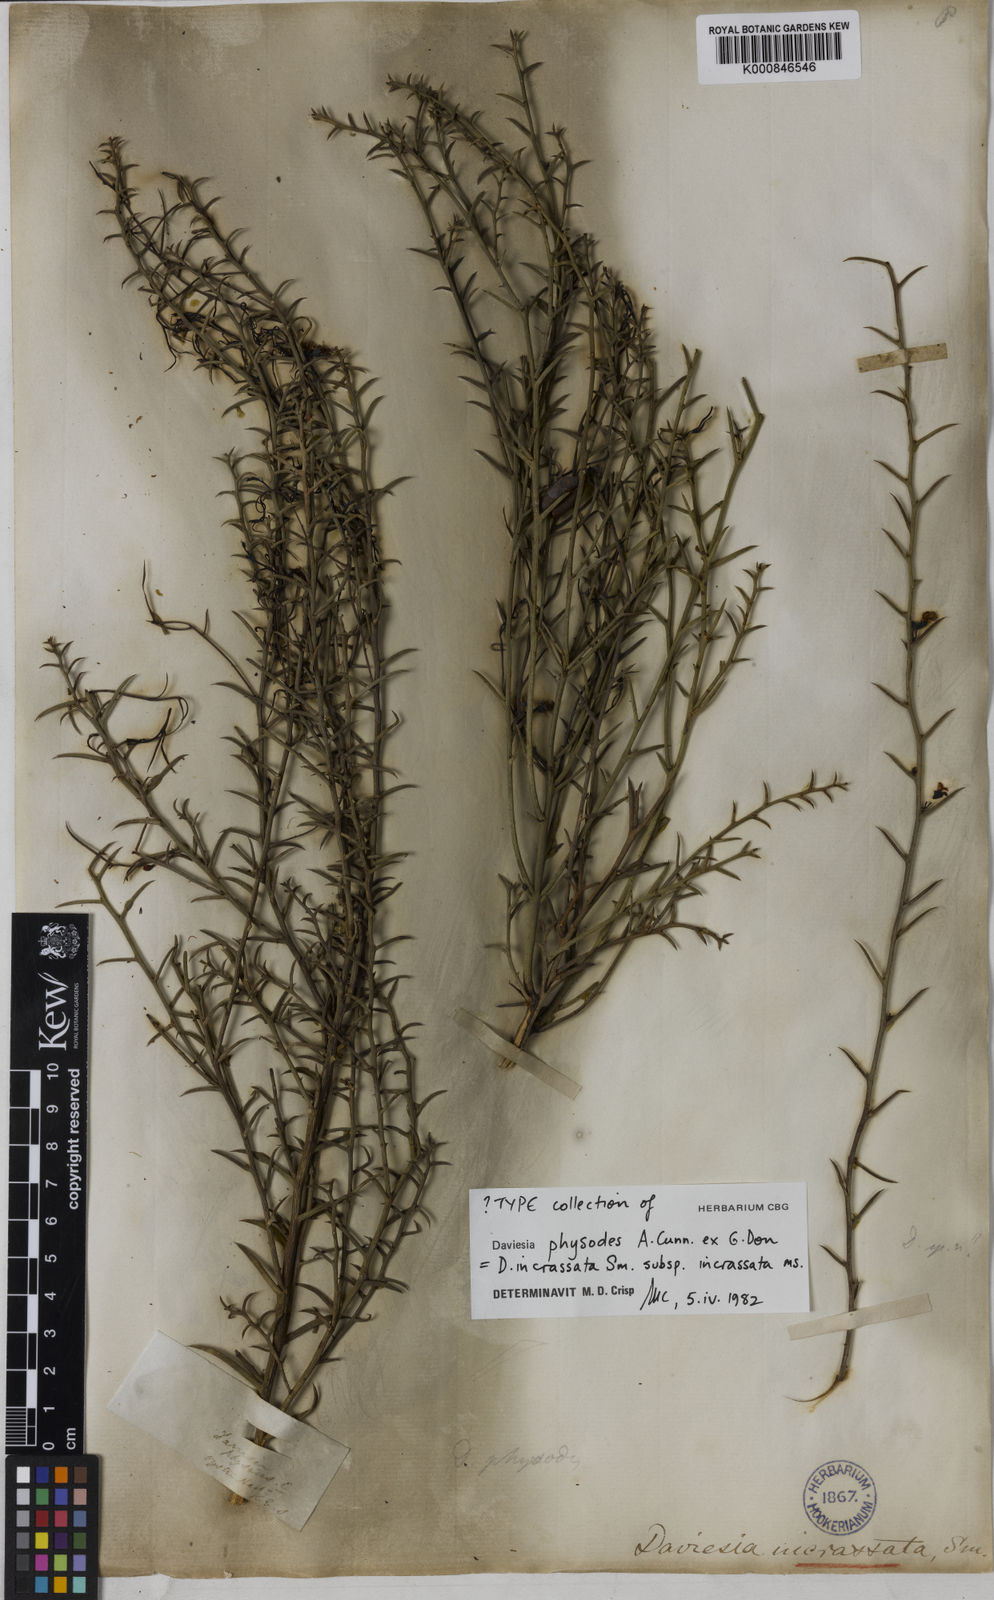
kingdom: Plantae
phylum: Tracheophyta
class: Magnoliopsida
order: Fabales
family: Fabaceae
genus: Daviesia
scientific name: Daviesia physodes
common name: Prickly bitter pea
